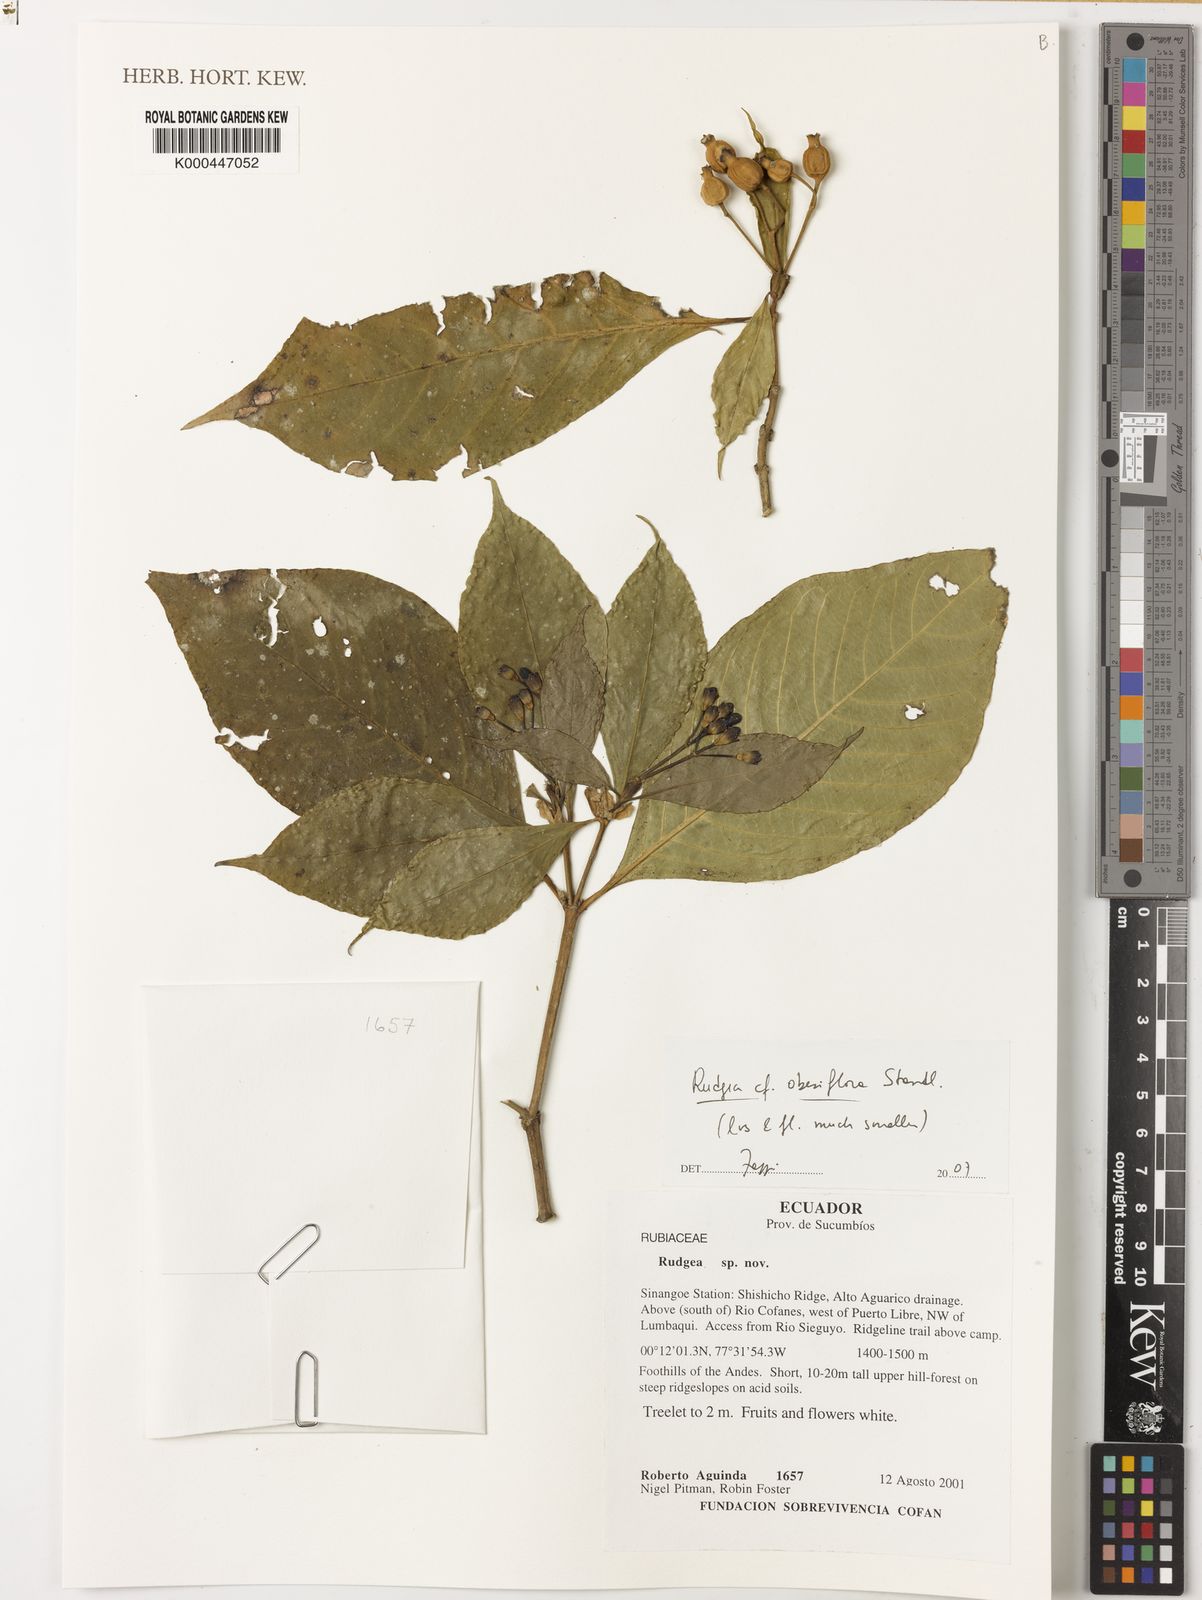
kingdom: Plantae
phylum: Tracheophyta
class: Magnoliopsida
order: Gentianales
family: Rubiaceae
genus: Rudgea
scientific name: Rudgea obesiflora
